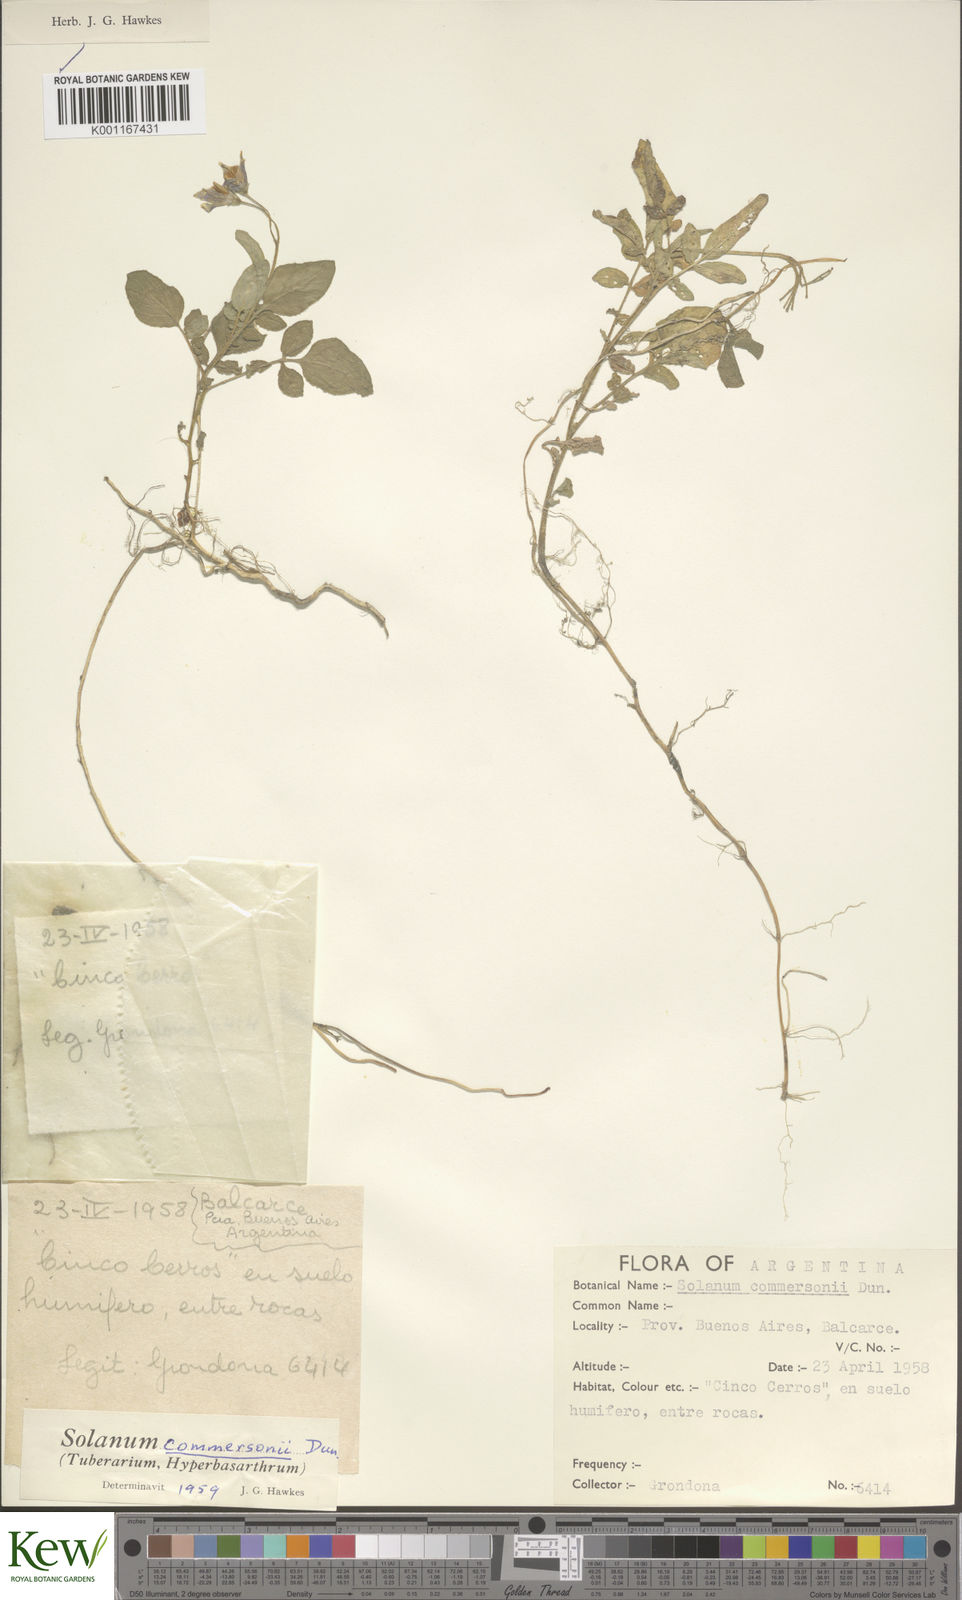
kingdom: Plantae
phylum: Tracheophyta
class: Magnoliopsida
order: Solanales
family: Solanaceae
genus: Solanum
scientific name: Solanum commersonii
